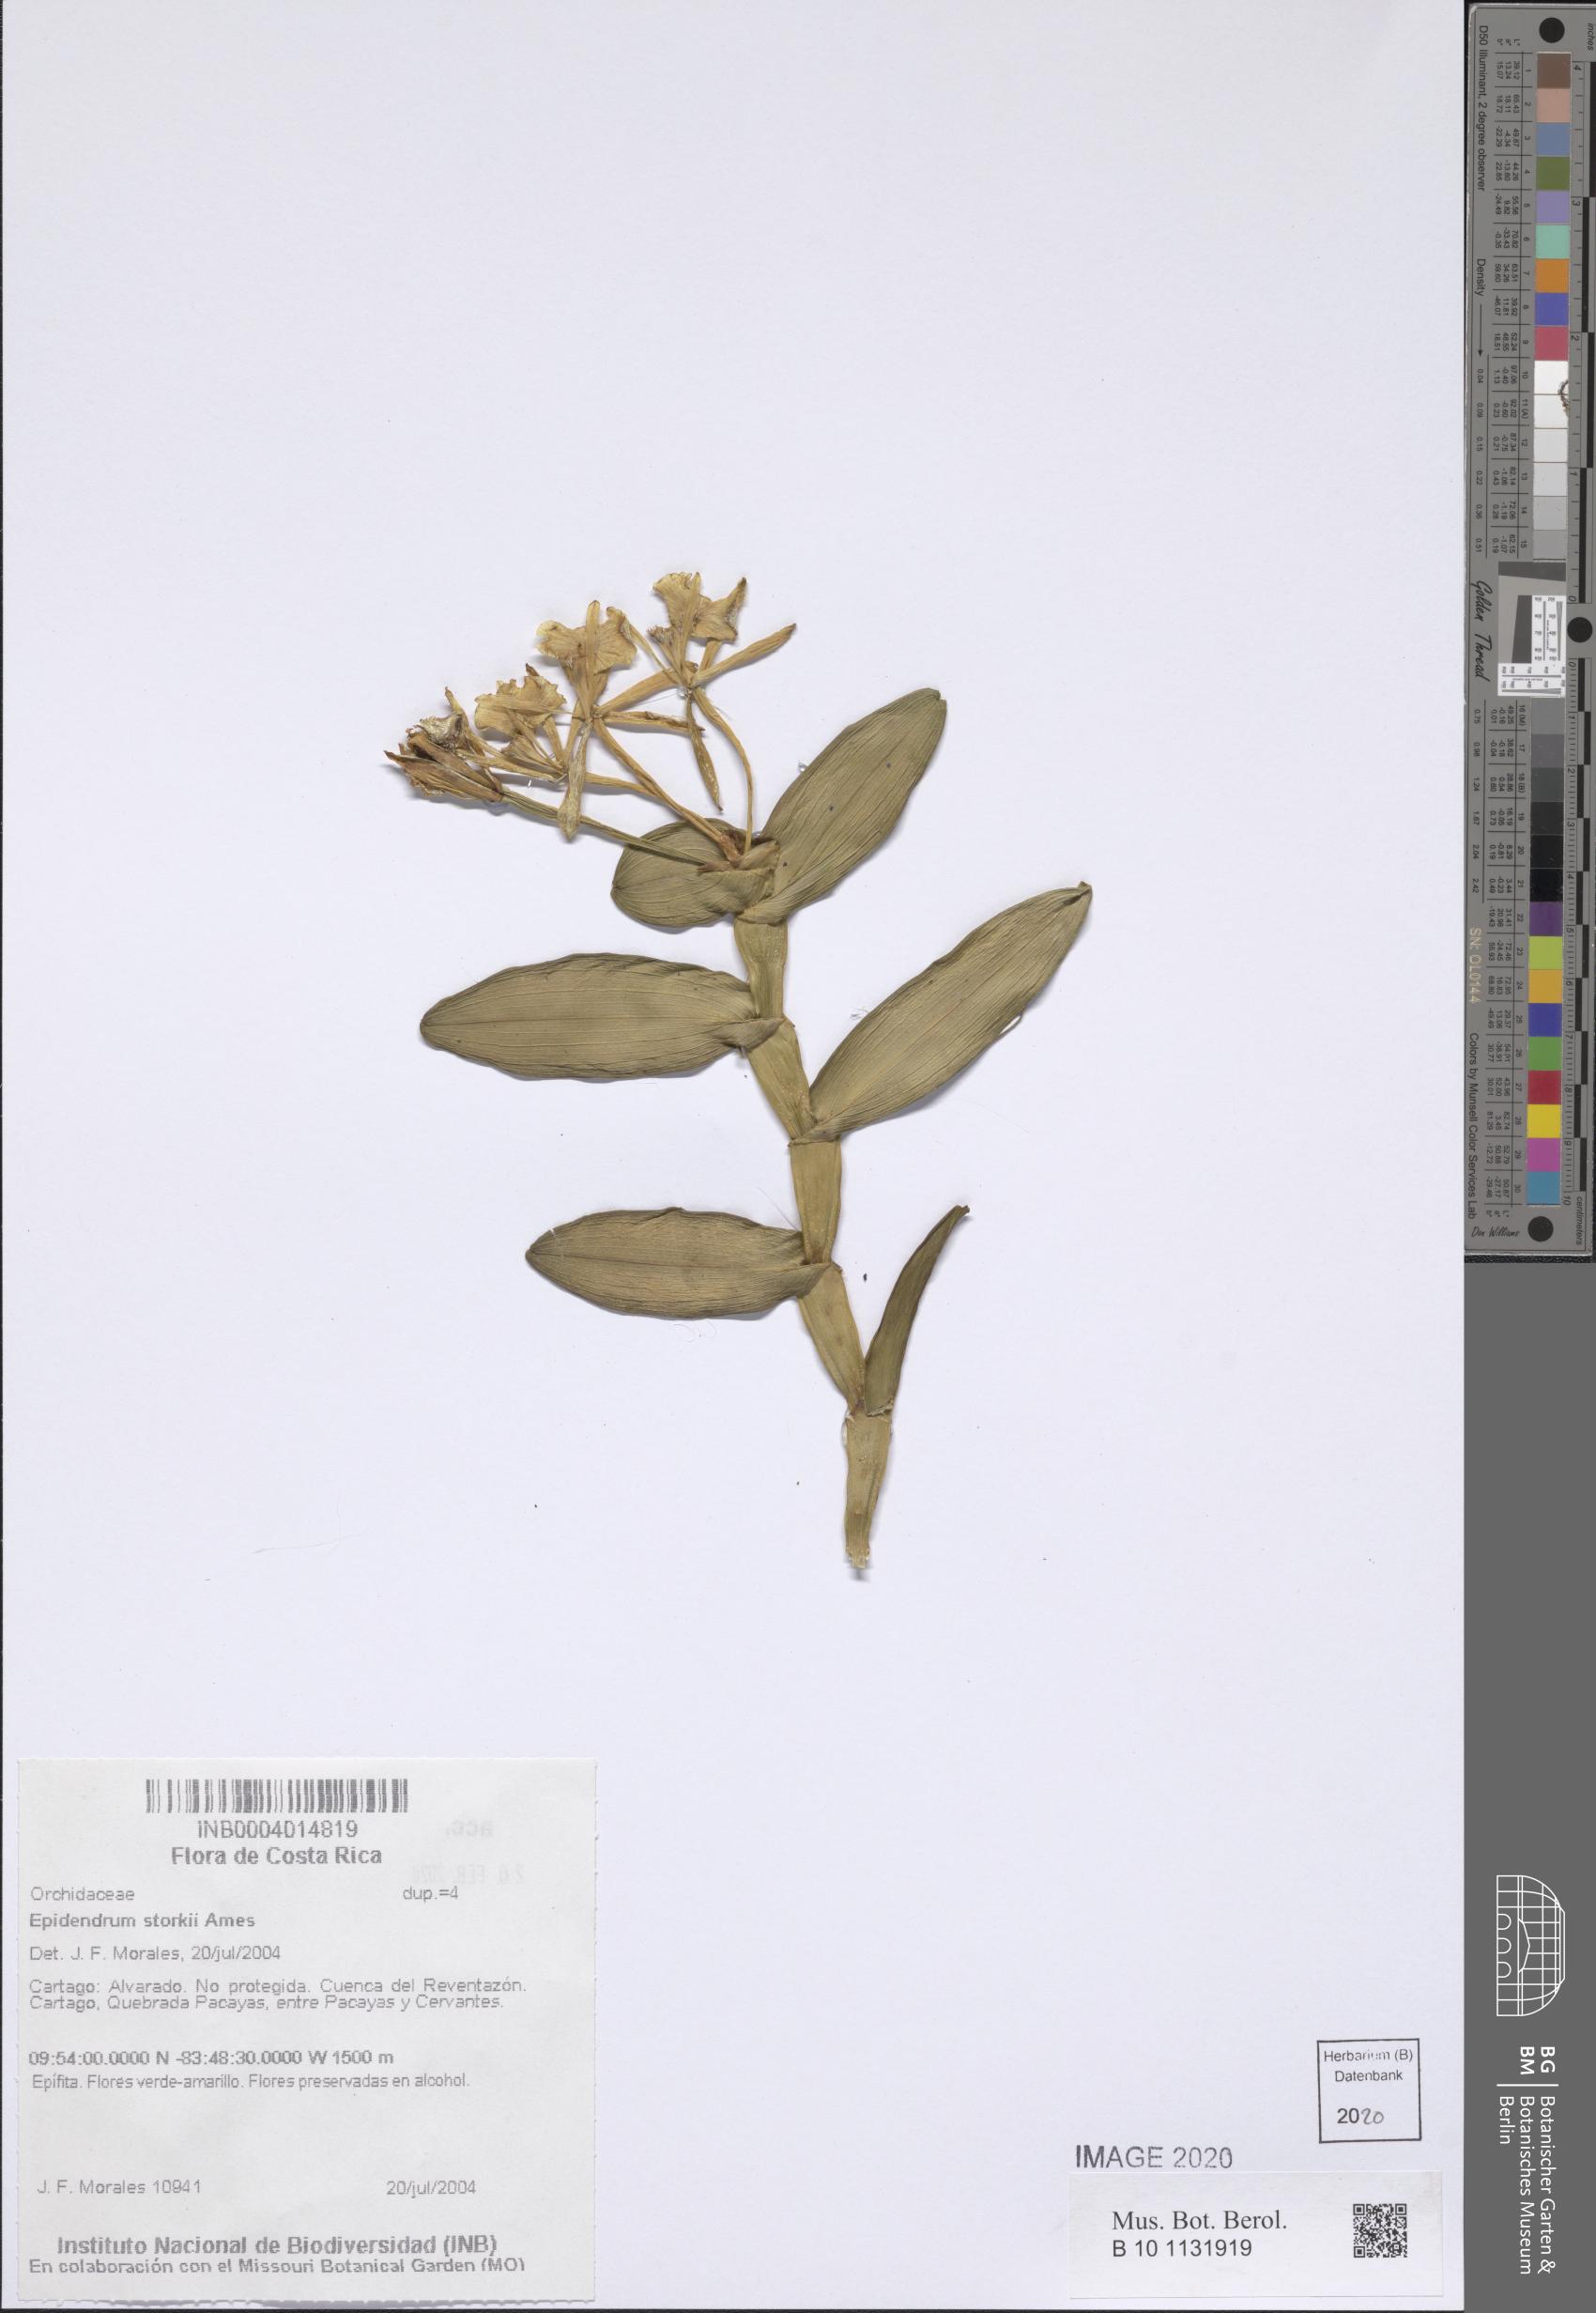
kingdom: Plantae
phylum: Tracheophyta
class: Liliopsida
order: Asparagales
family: Orchidaceae
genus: Epidendrum
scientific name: Epidendrum storkii
